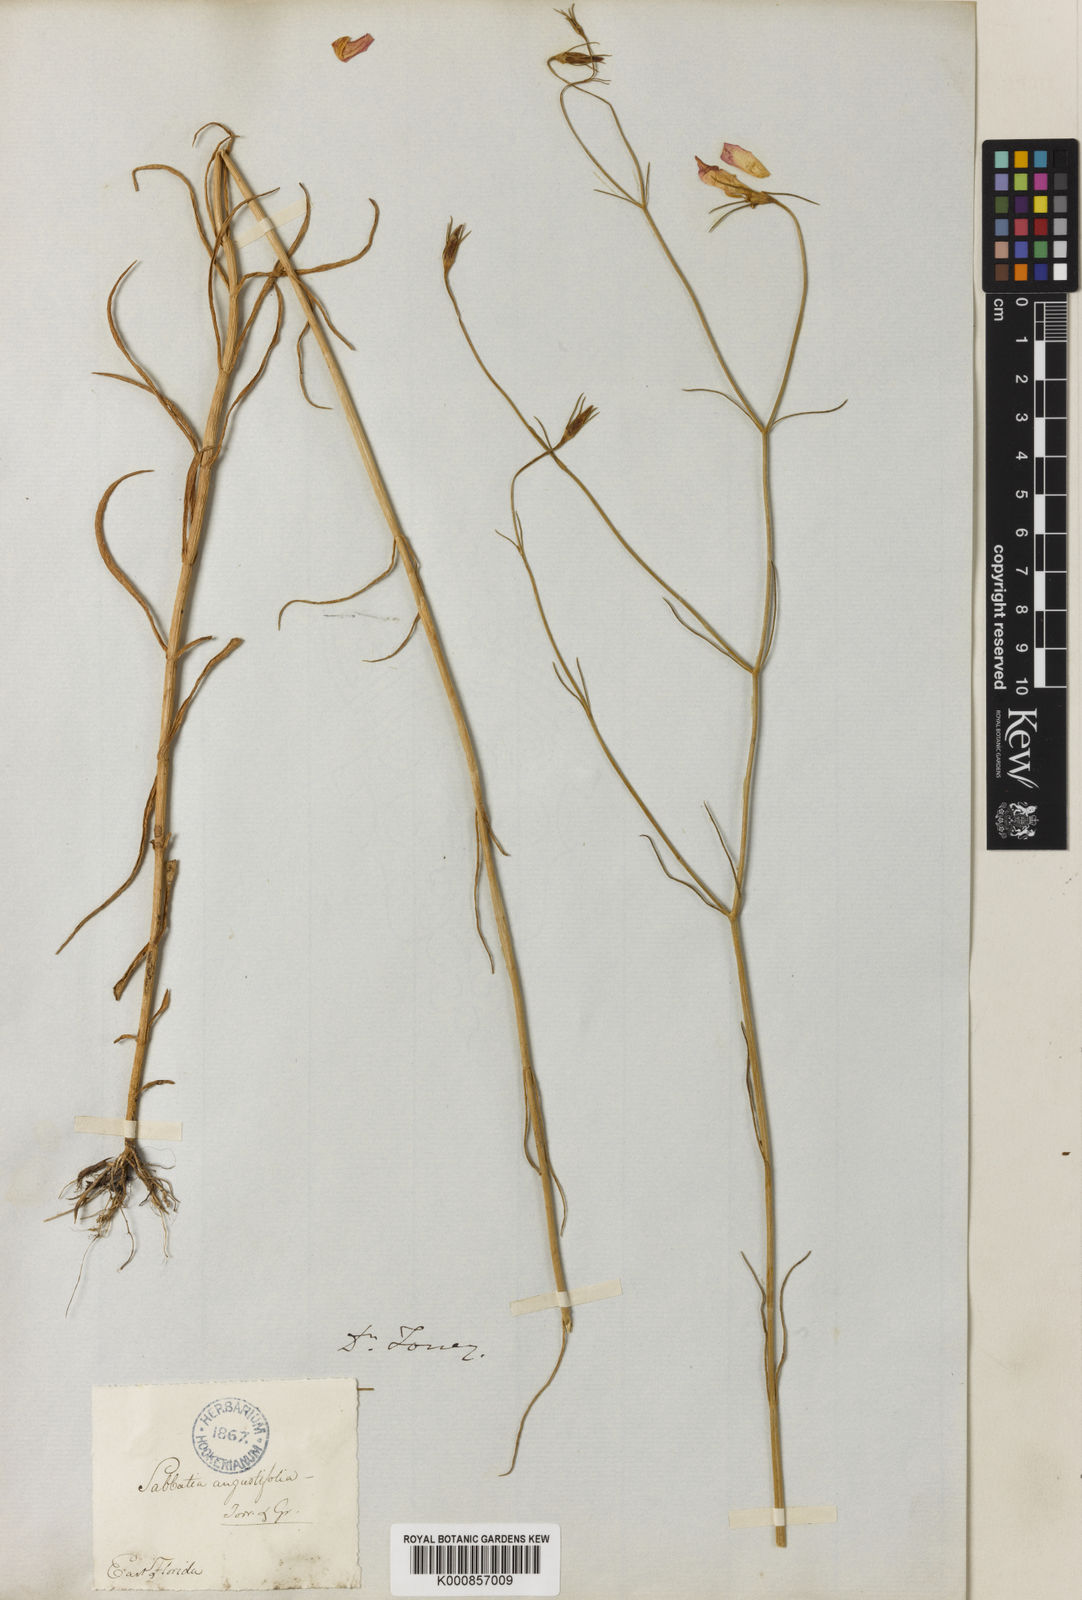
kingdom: Plantae
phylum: Tracheophyta
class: Magnoliopsida
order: Gentianales
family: Gentianaceae
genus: Sabatia
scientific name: Sabatia
